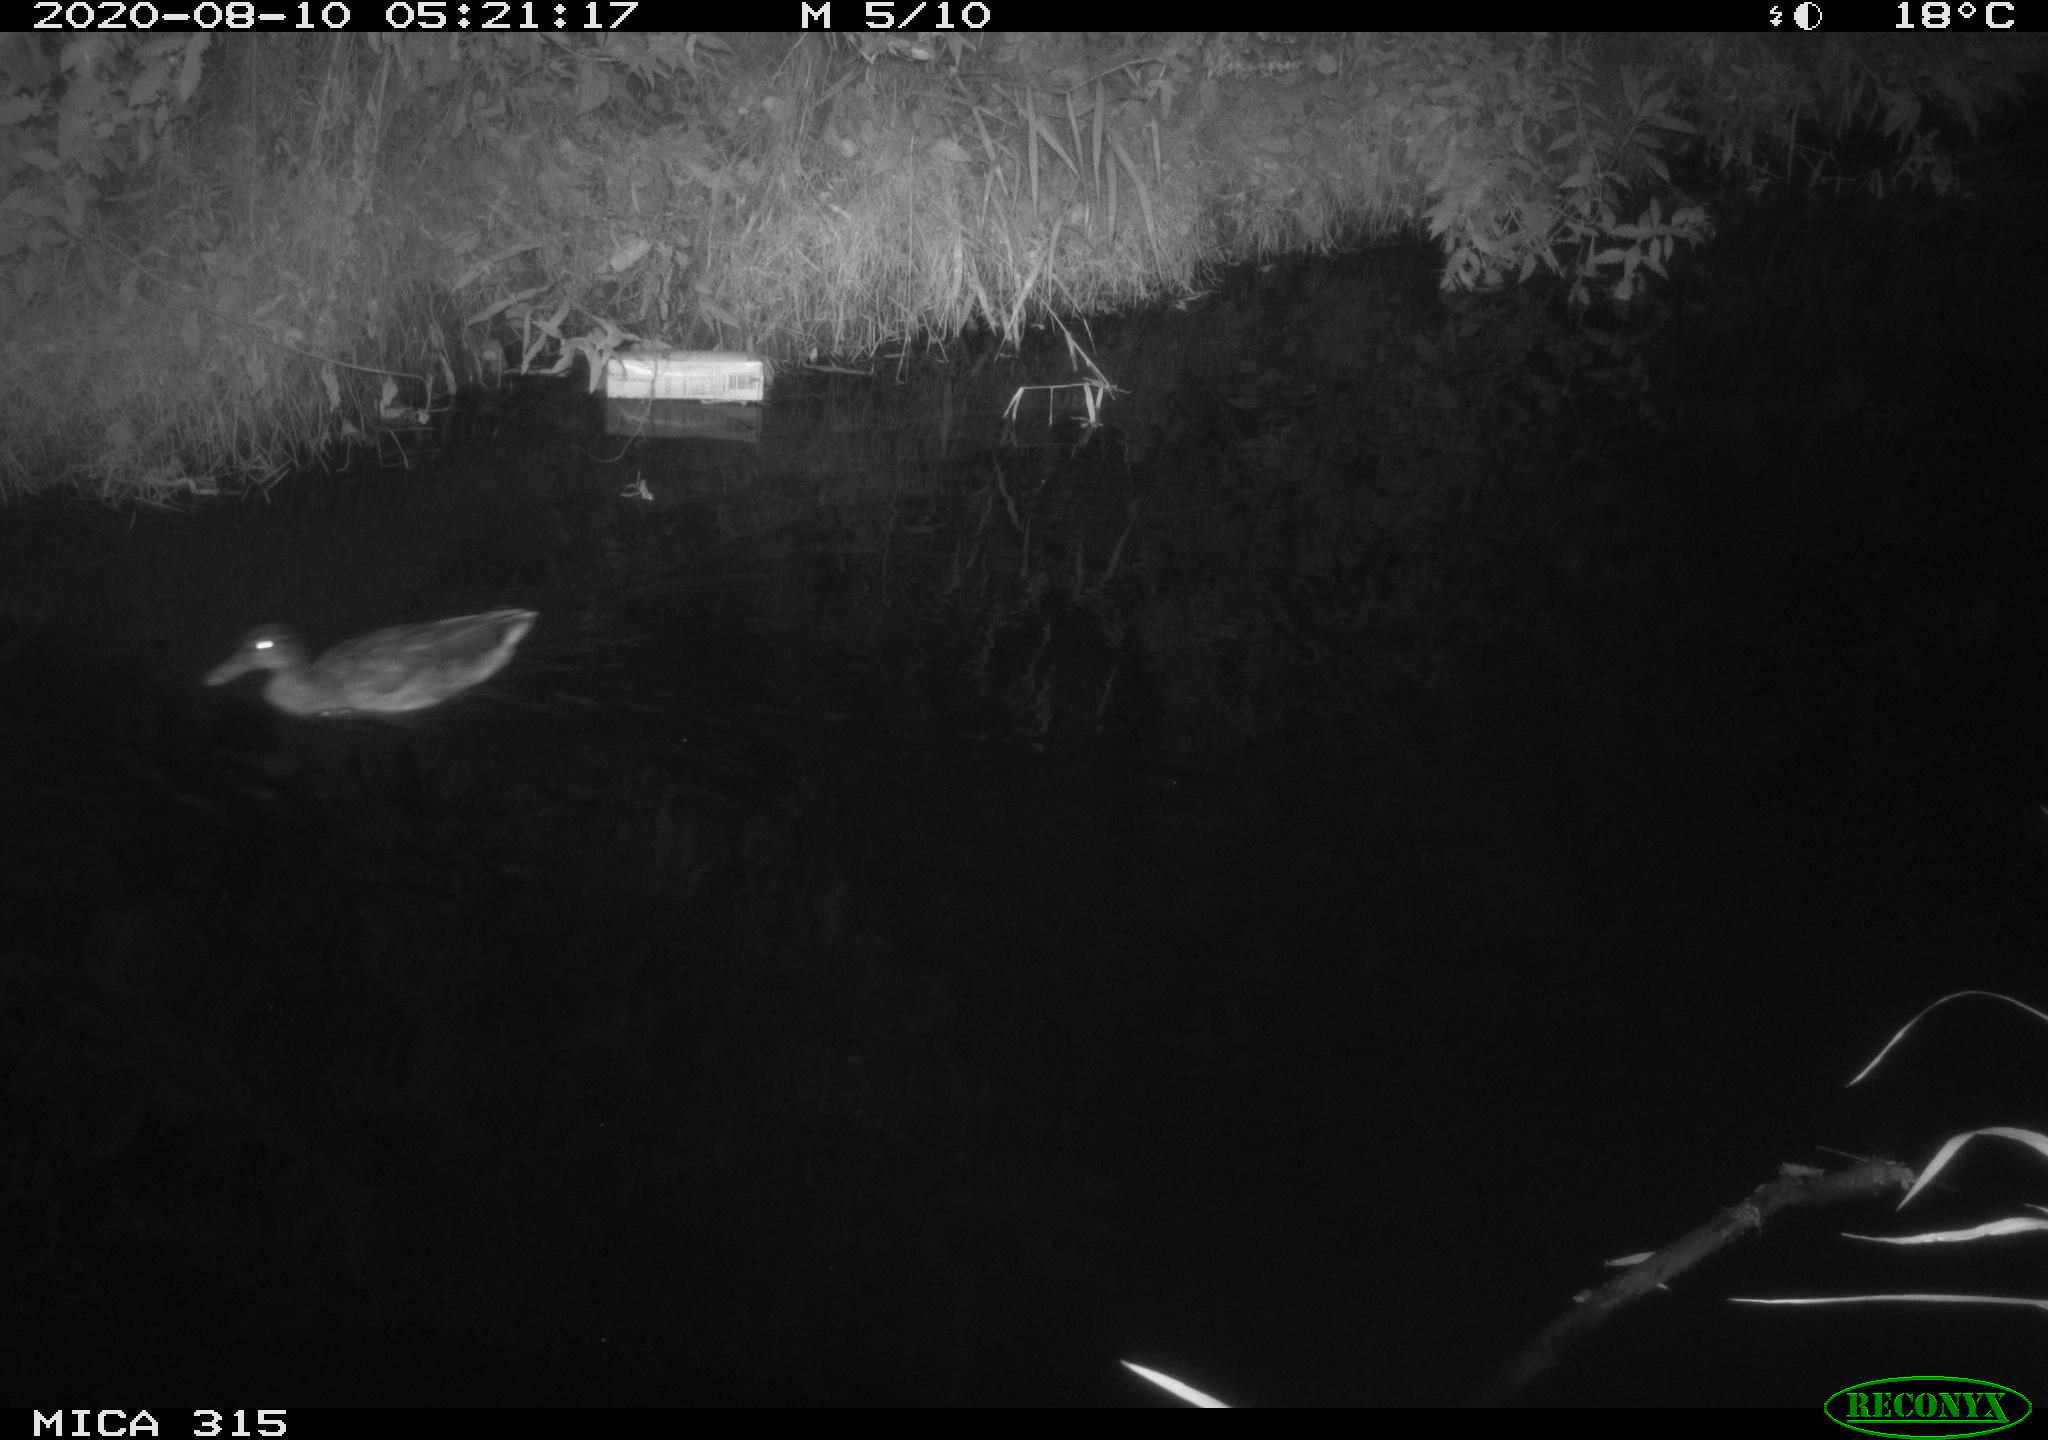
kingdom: Animalia
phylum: Chordata
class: Aves
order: Anseriformes
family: Anatidae
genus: Anas
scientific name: Anas platyrhynchos
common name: Mallard
